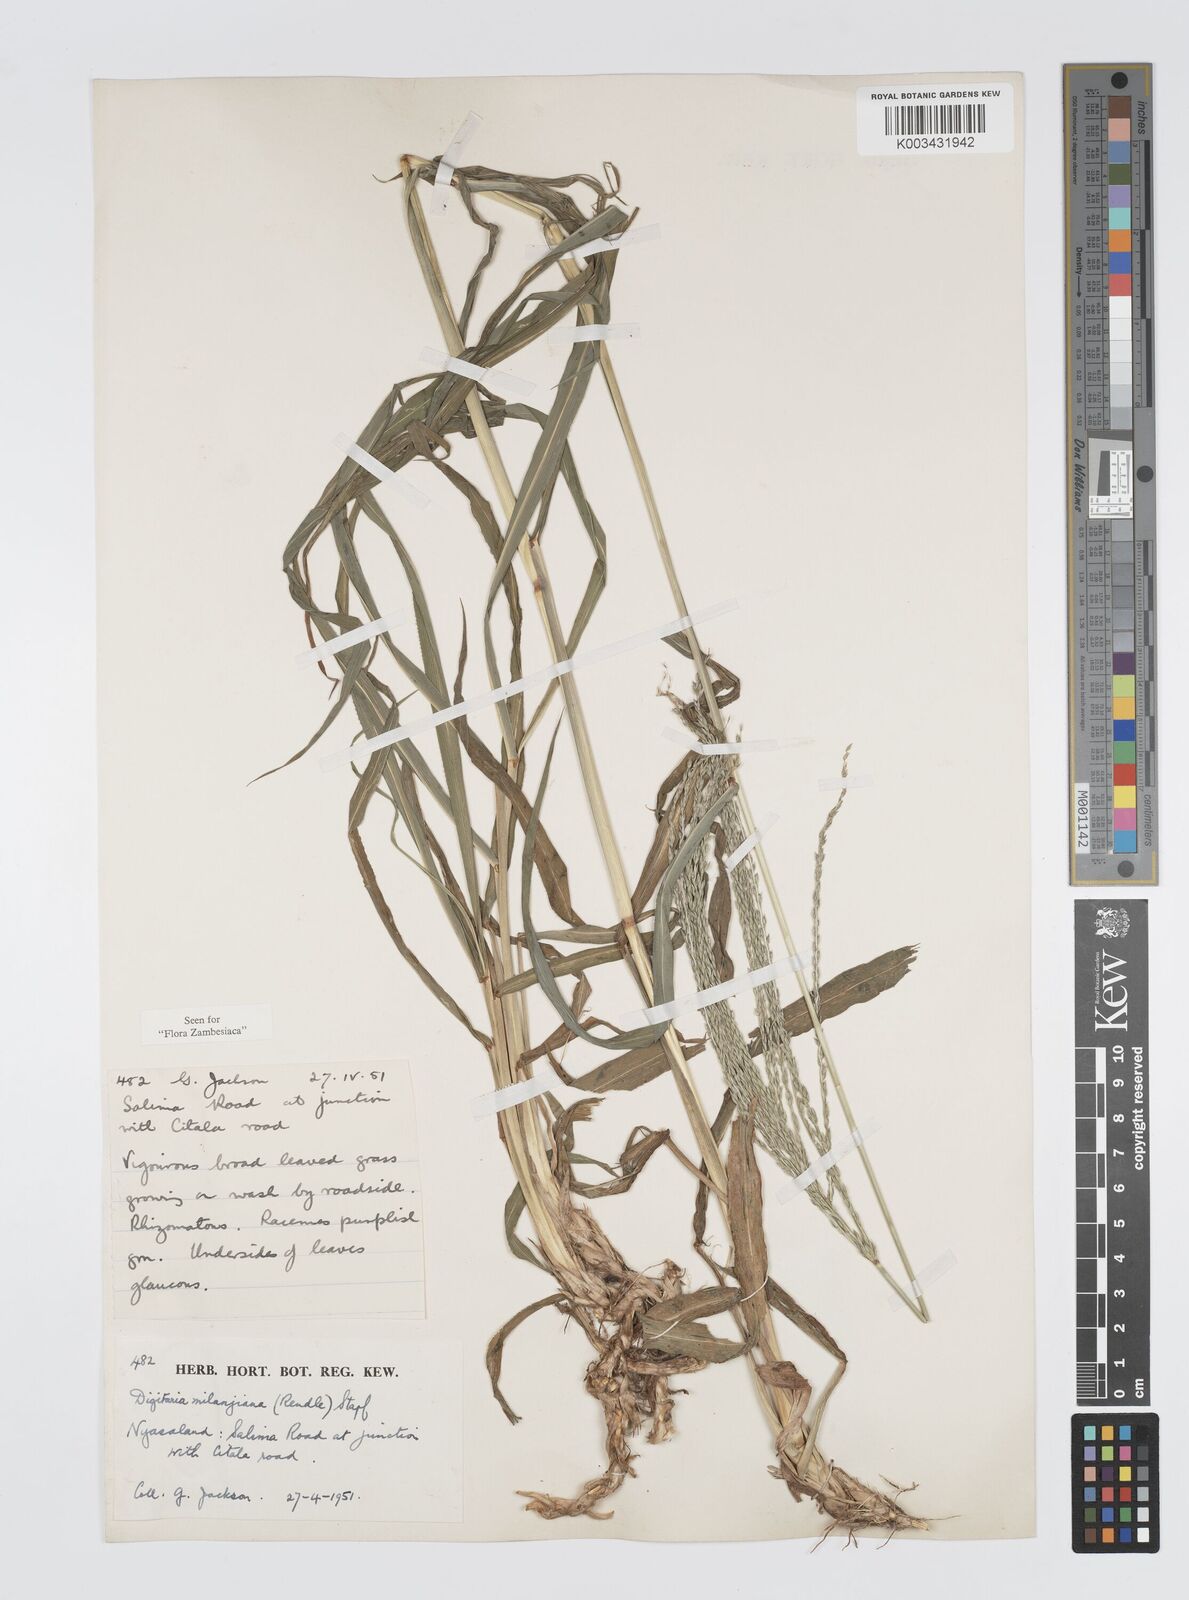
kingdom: Plantae
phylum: Tracheophyta
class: Liliopsida
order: Poales
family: Poaceae
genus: Digitaria
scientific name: Digitaria milanjiana
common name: Madagascar crabgrass
